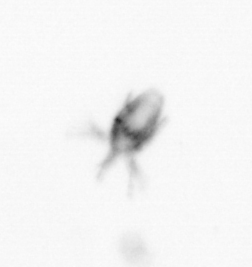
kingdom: Animalia
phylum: Arthropoda
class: Copepoda
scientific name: Copepoda
